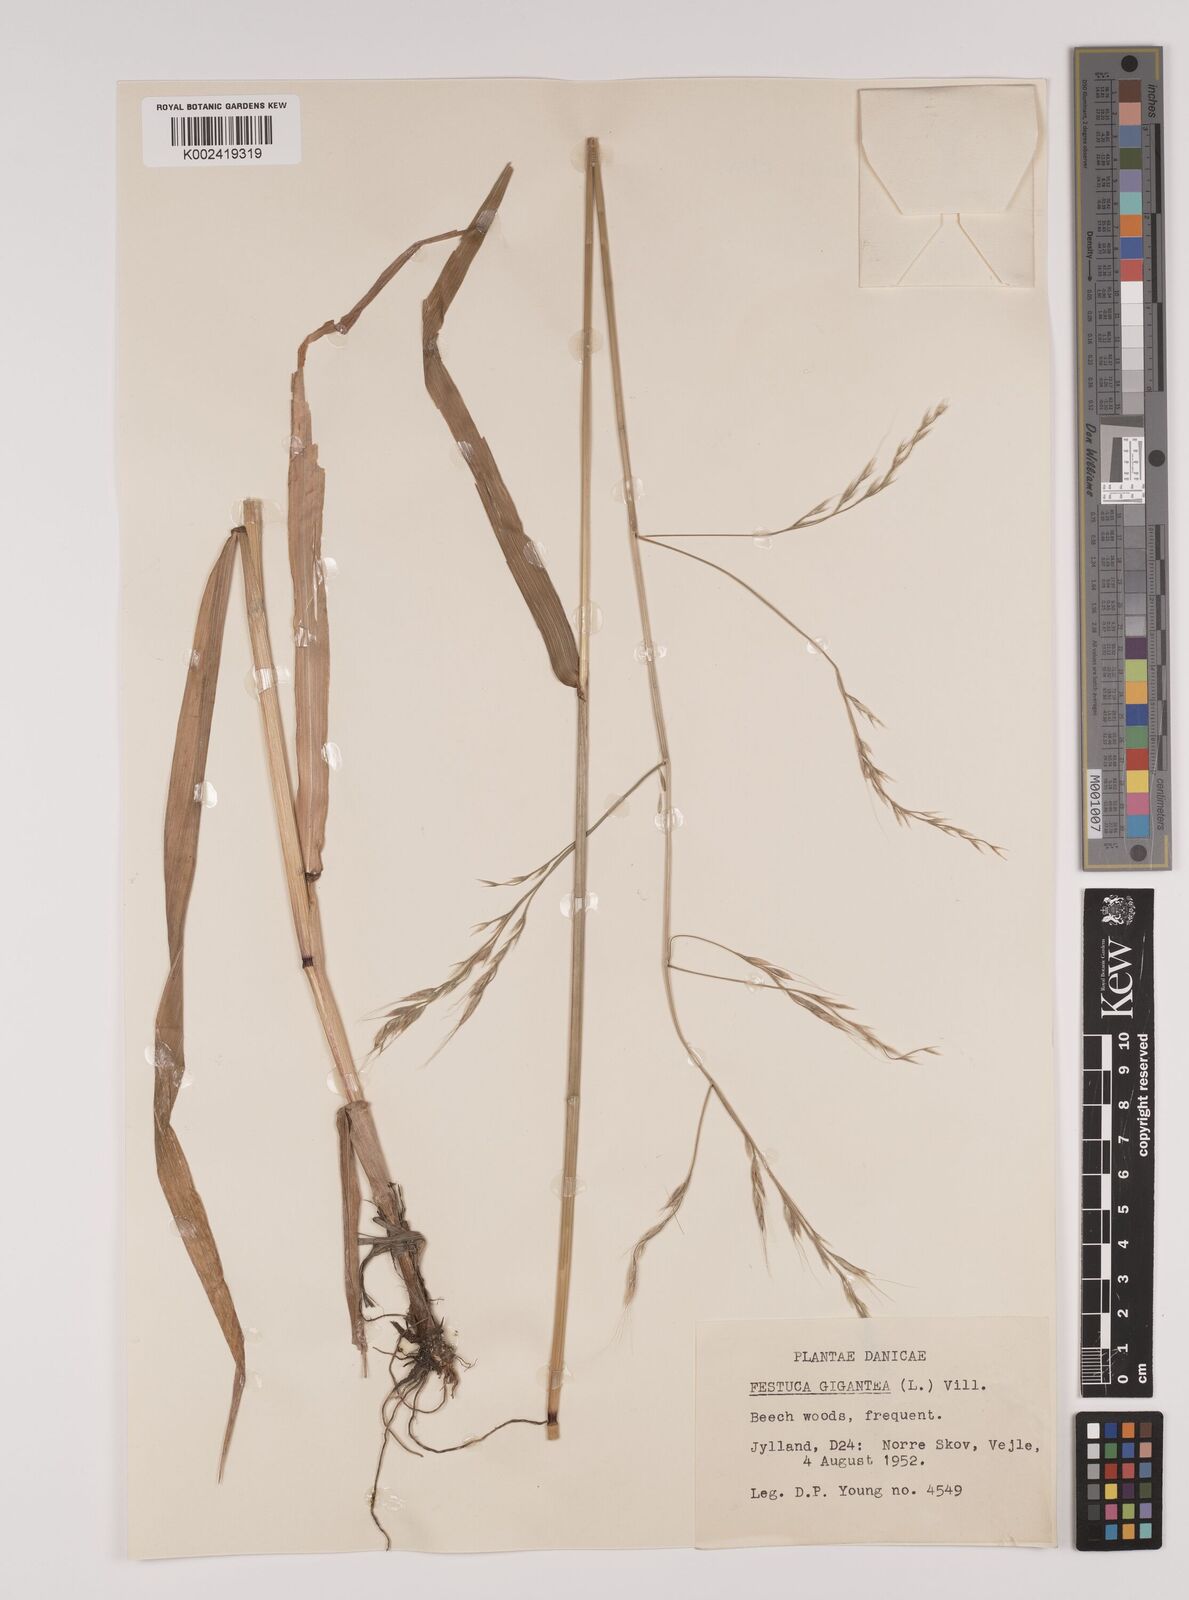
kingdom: Plantae
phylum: Tracheophyta
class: Liliopsida
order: Poales
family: Poaceae
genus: Lolium
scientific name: Lolium giganteum
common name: Giant fescue
